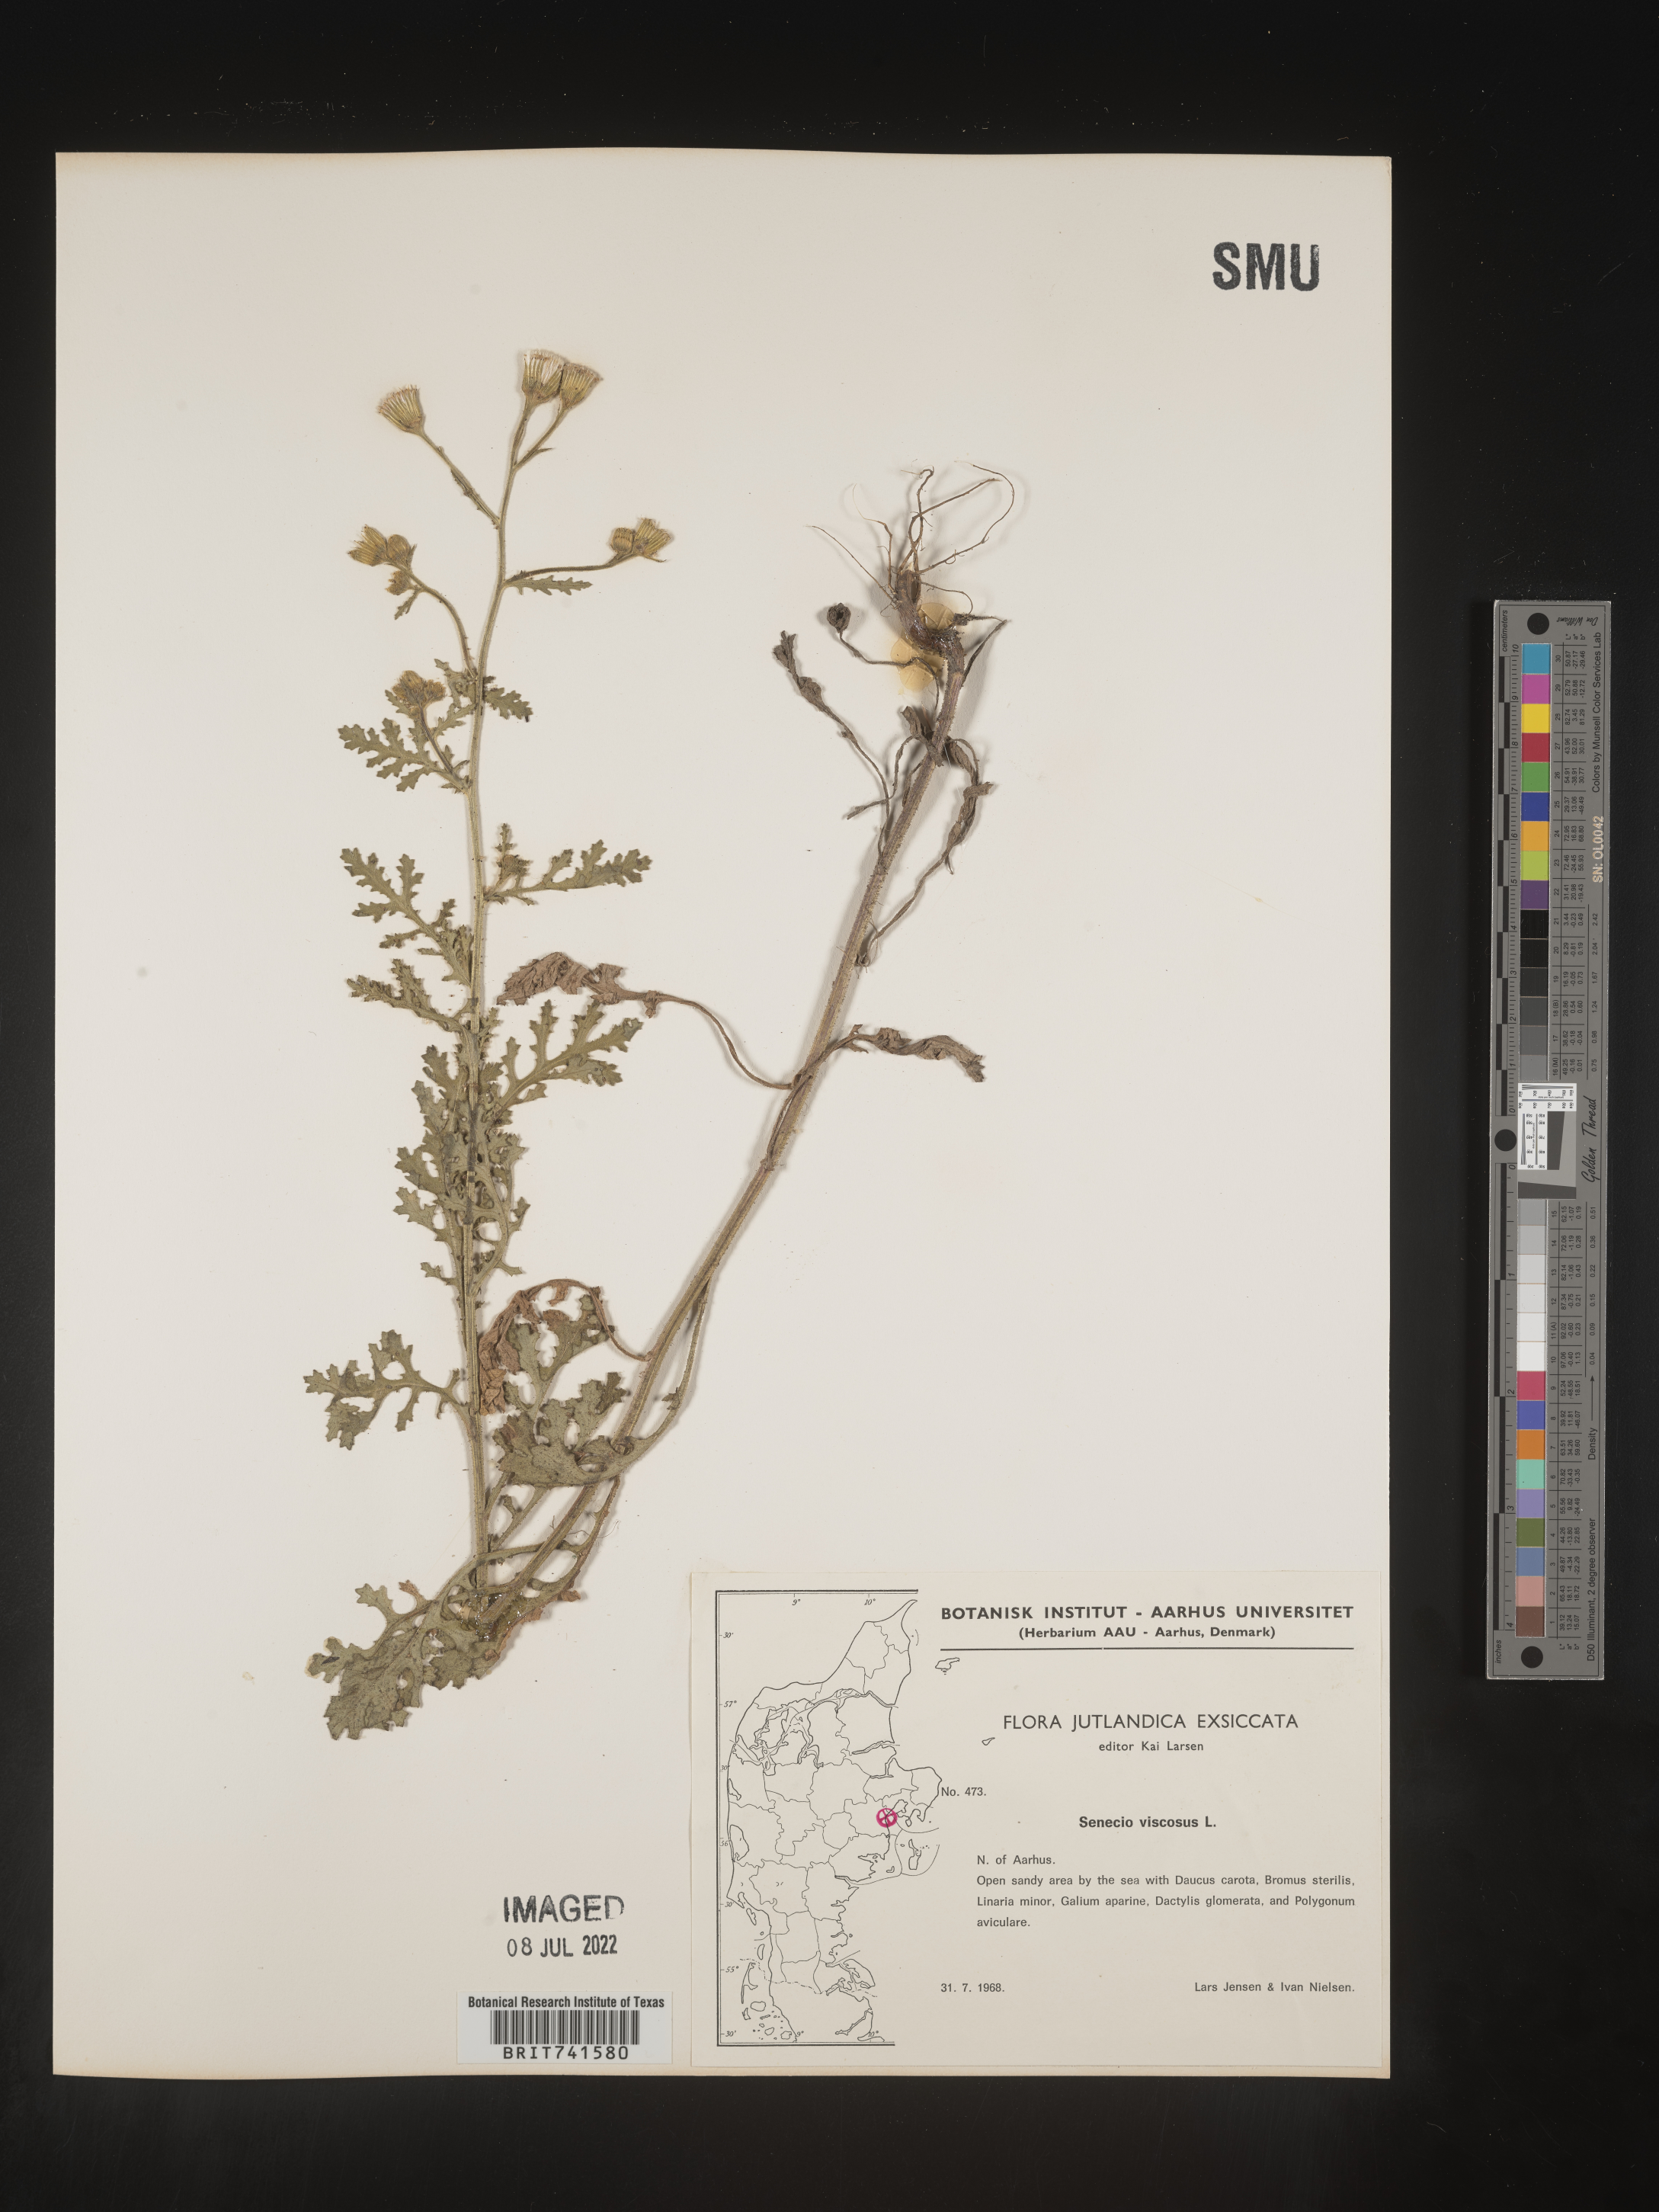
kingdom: Plantae
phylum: Tracheophyta
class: Magnoliopsida
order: Asterales
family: Asteraceae
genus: Senecio
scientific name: Senecio
